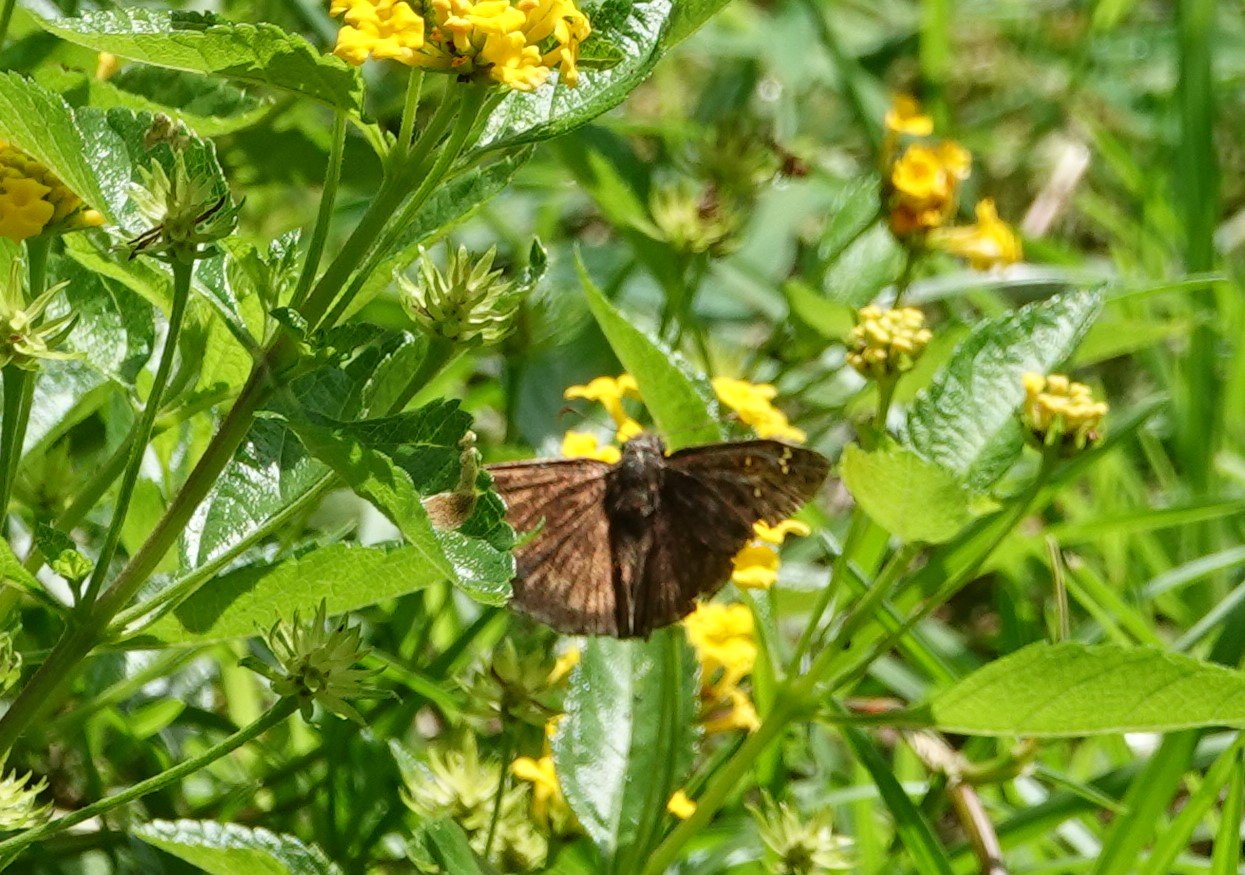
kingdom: Animalia
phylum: Arthropoda
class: Insecta
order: Lepidoptera
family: Hesperiidae
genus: Gesta
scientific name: Gesta
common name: Horace's Duskywing
